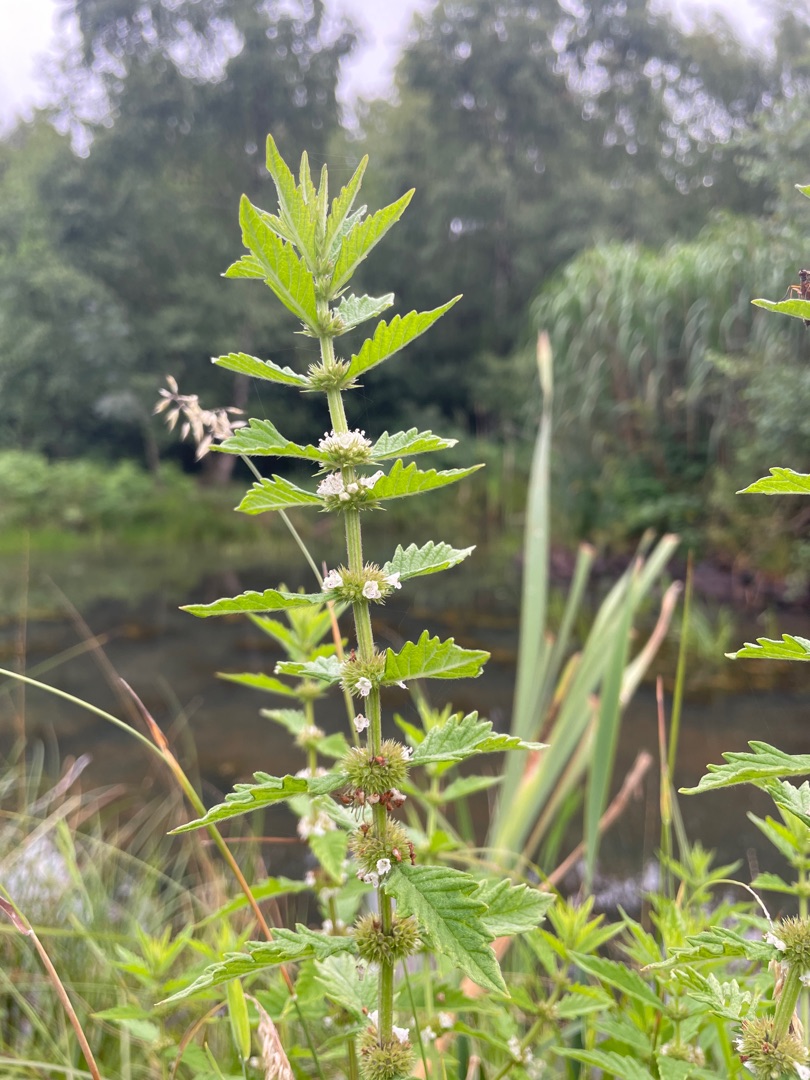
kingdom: Plantae
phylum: Tracheophyta
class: Magnoliopsida
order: Lamiales
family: Lamiaceae
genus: Lycopus
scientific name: Lycopus europaeus
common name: Sværtevæld
